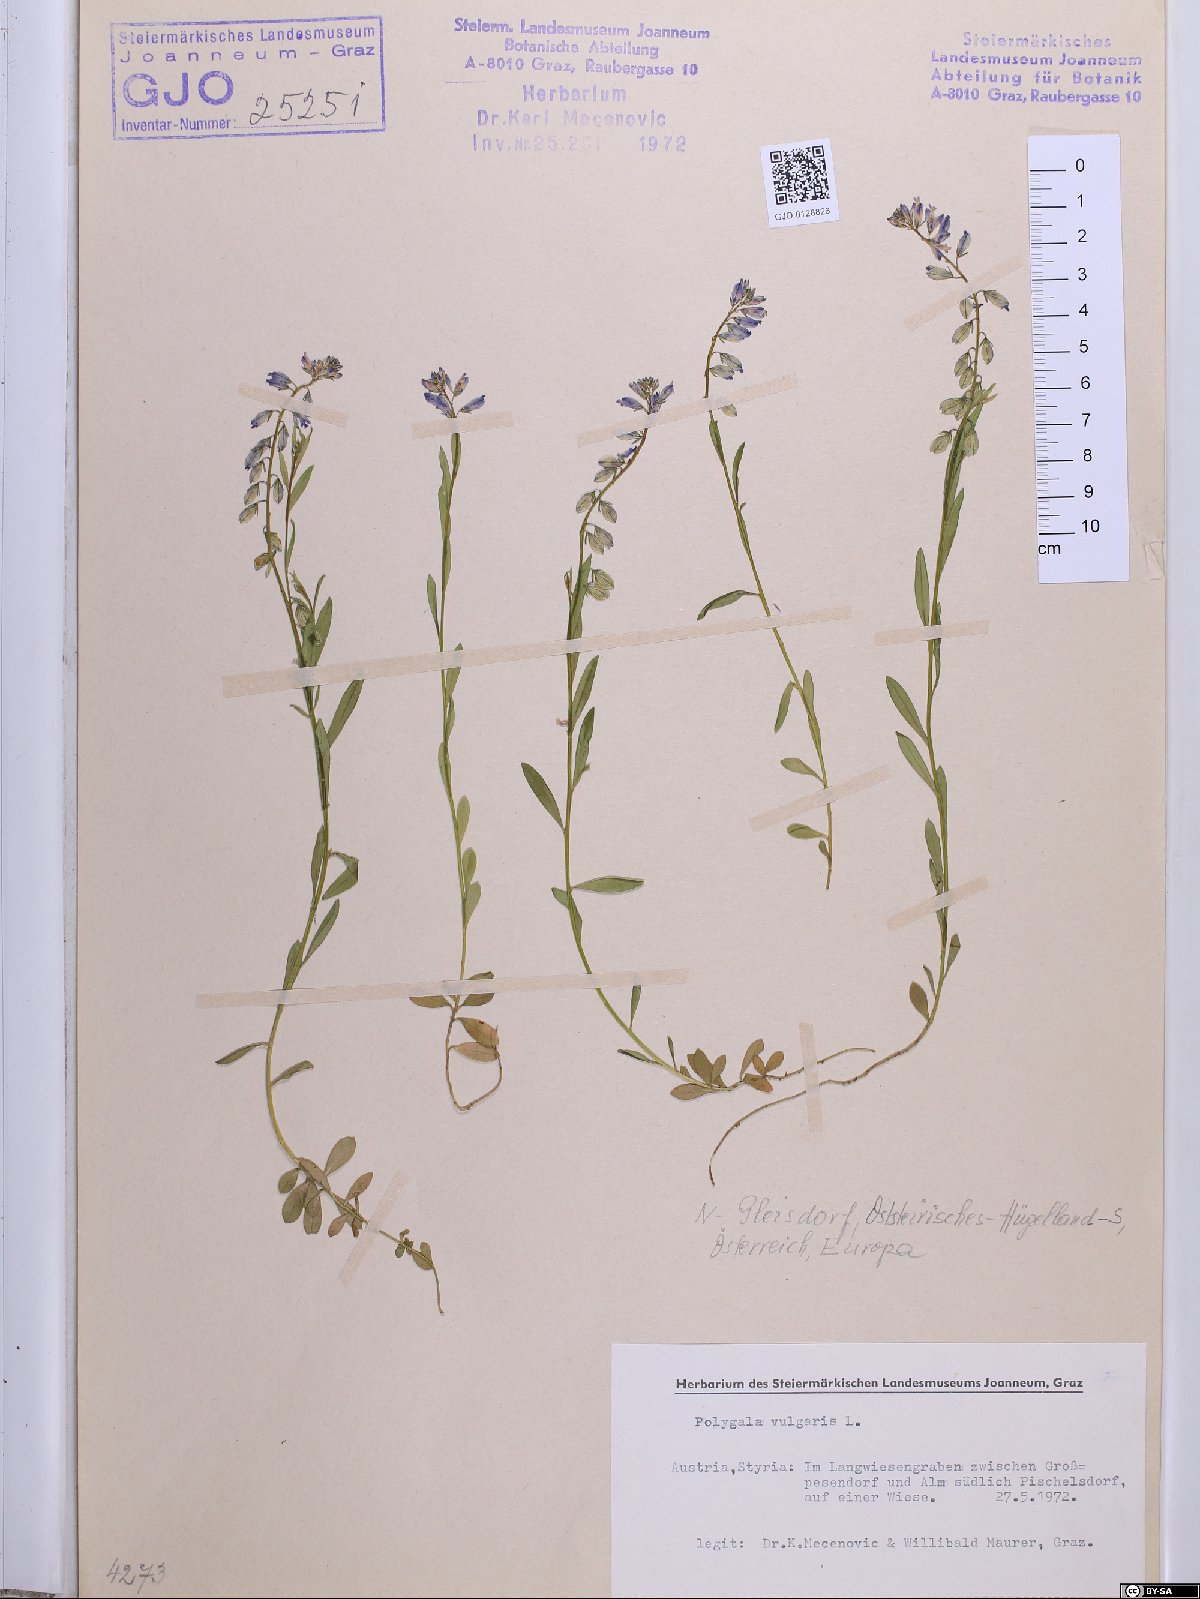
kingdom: Plantae
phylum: Tracheophyta
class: Magnoliopsida
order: Fabales
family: Polygalaceae
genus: Polygala
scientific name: Polygala vulgaris
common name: Common milkwort
